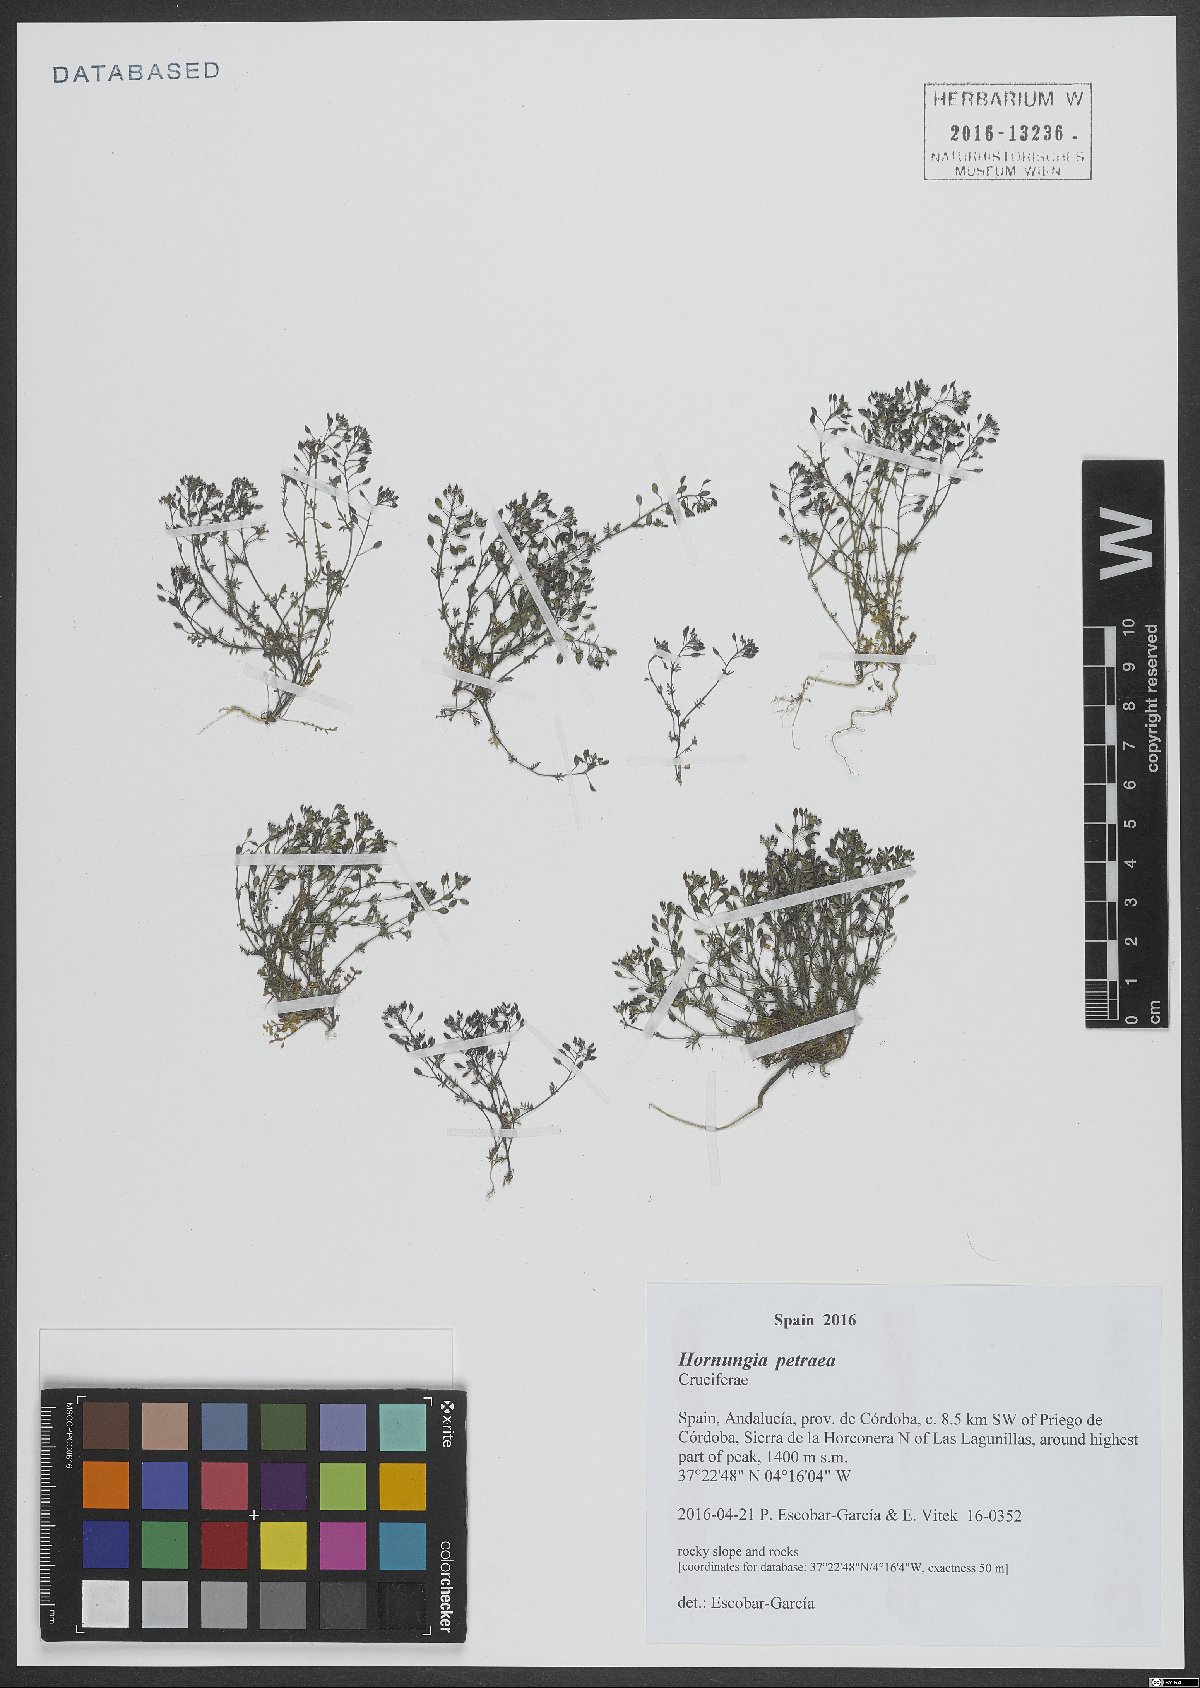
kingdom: Plantae
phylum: Tracheophyta
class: Magnoliopsida
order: Brassicales
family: Brassicaceae
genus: Hornungia
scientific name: Hornungia petraea
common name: Hutchinsia
